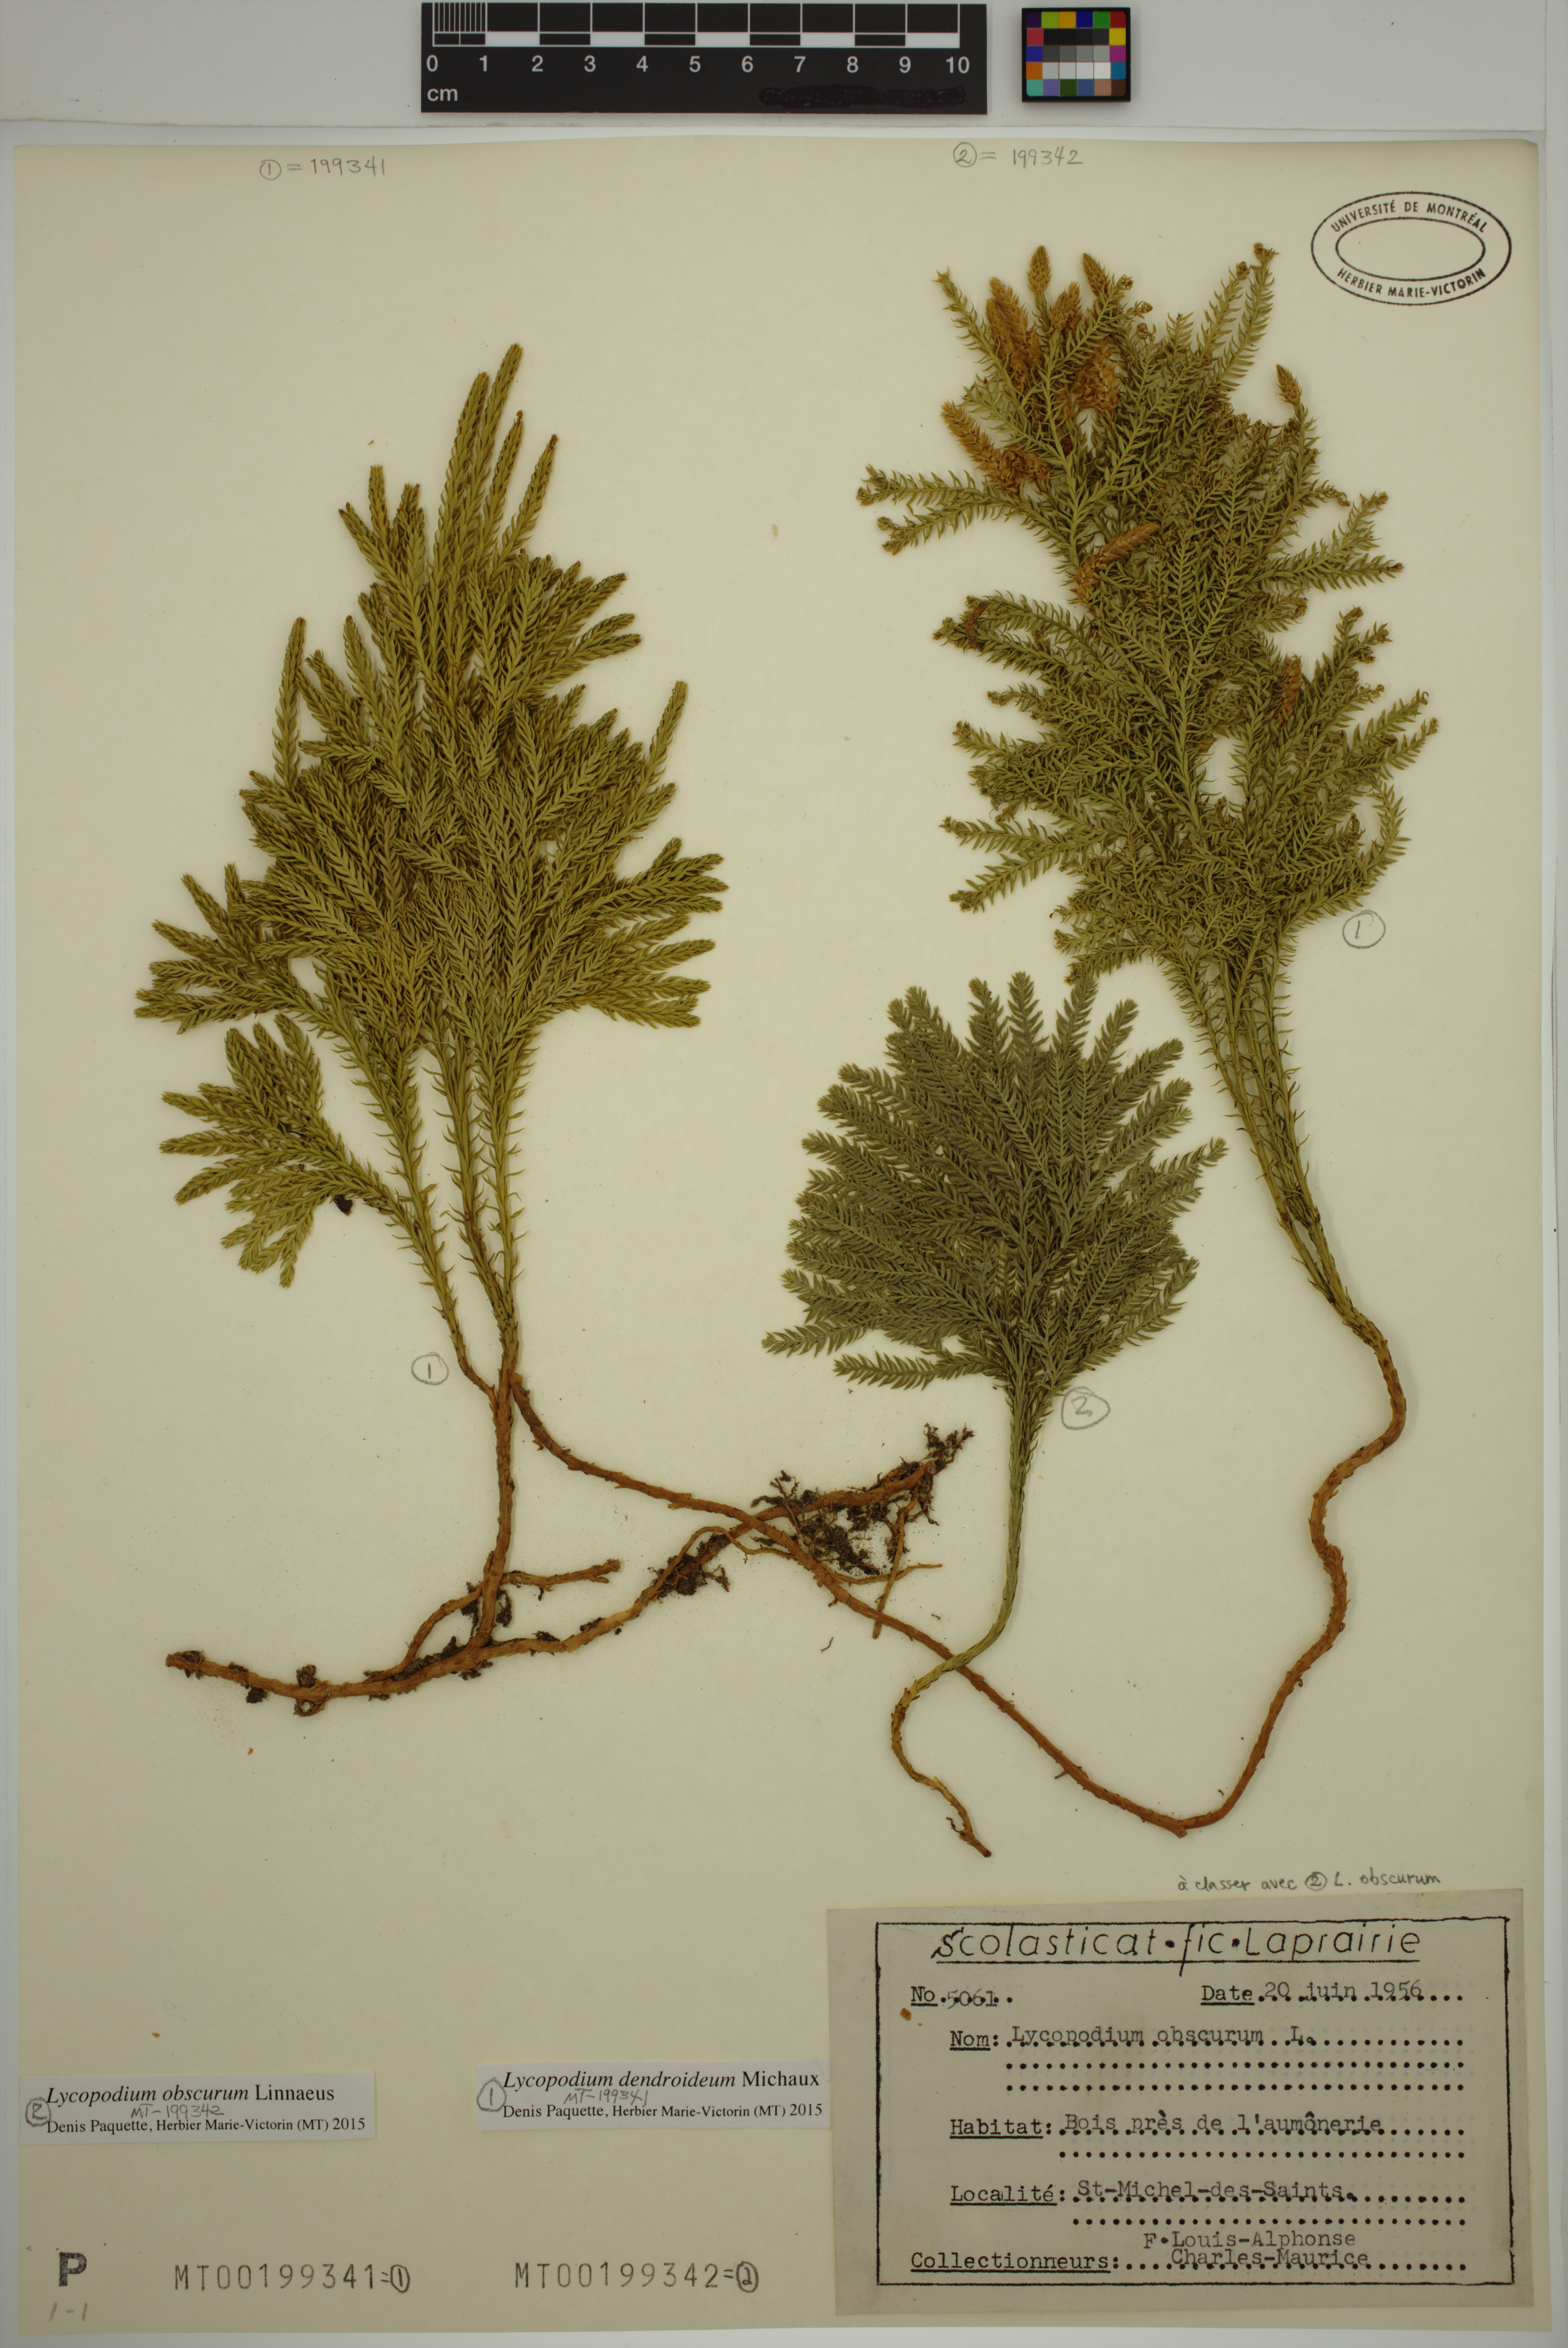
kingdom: Plantae
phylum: Tracheophyta
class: Lycopodiopsida
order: Lycopodiales
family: Lycopodiaceae
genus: Dendrolycopodium
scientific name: Dendrolycopodium obscurum
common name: Common ground-pine
